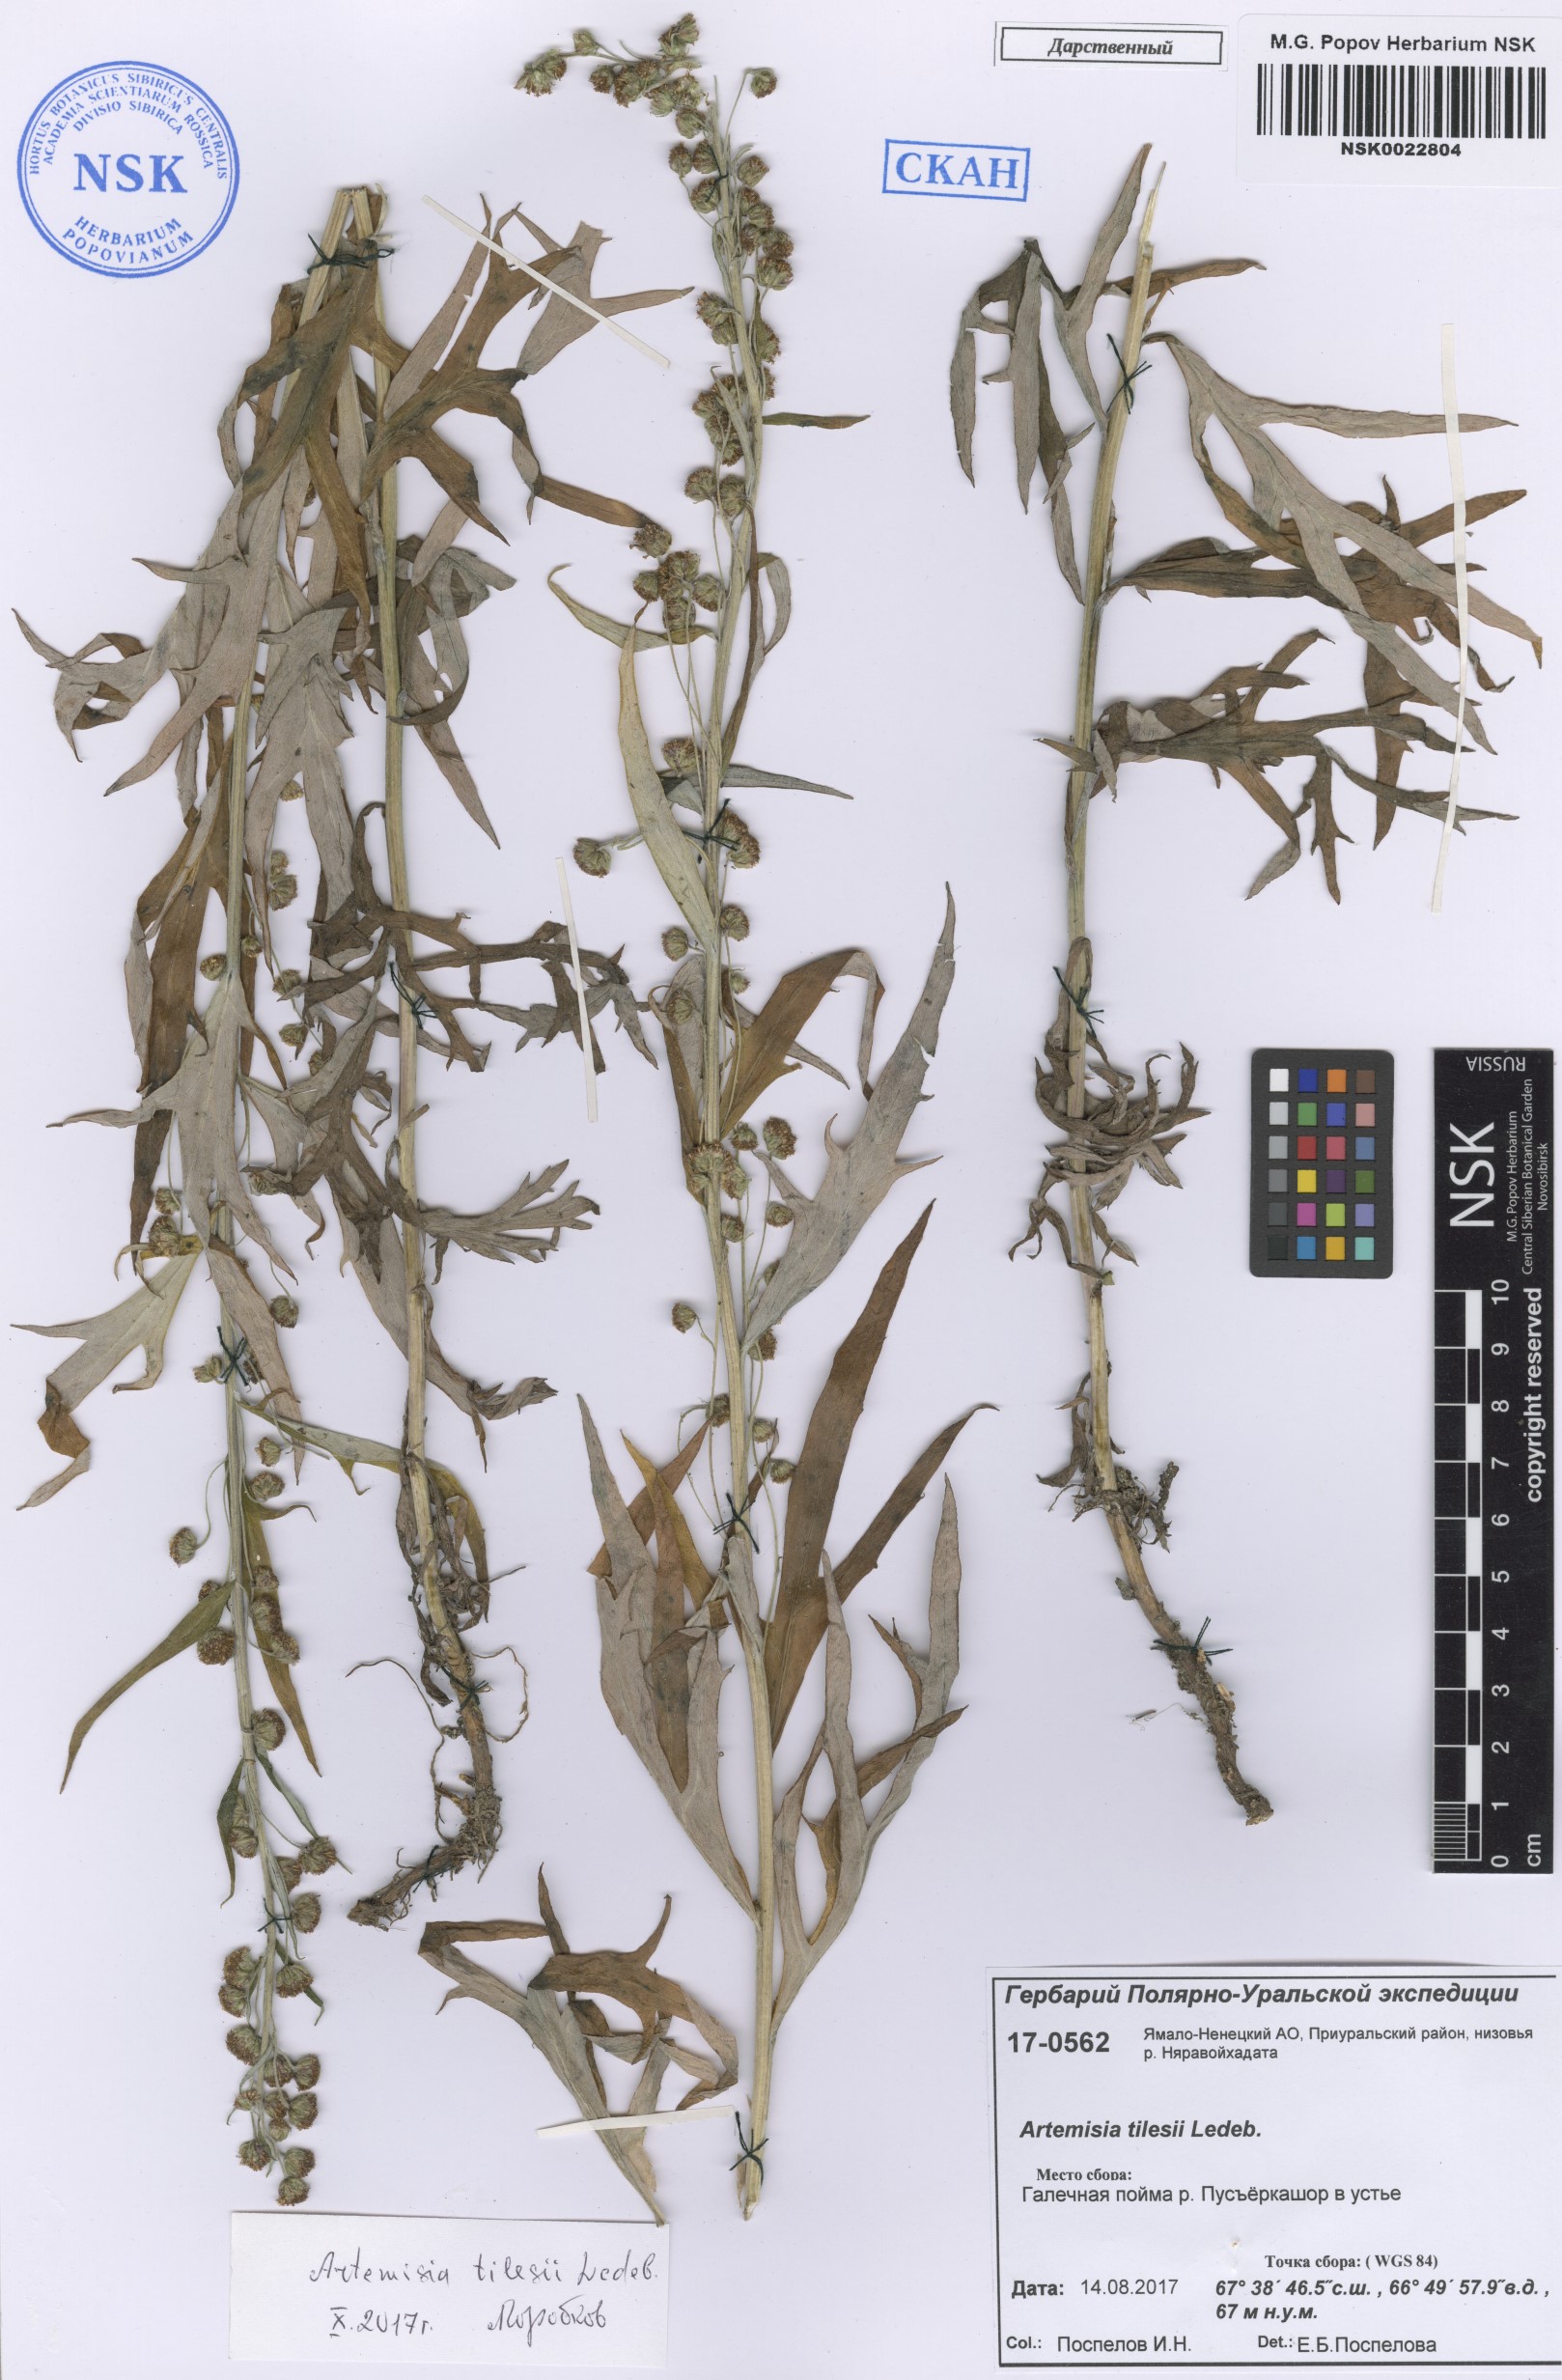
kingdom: Plantae
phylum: Tracheophyta
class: Magnoliopsida
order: Asterales
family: Asteraceae
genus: Artemisia
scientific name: Artemisia tilesii
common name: Aleutian mugwort
